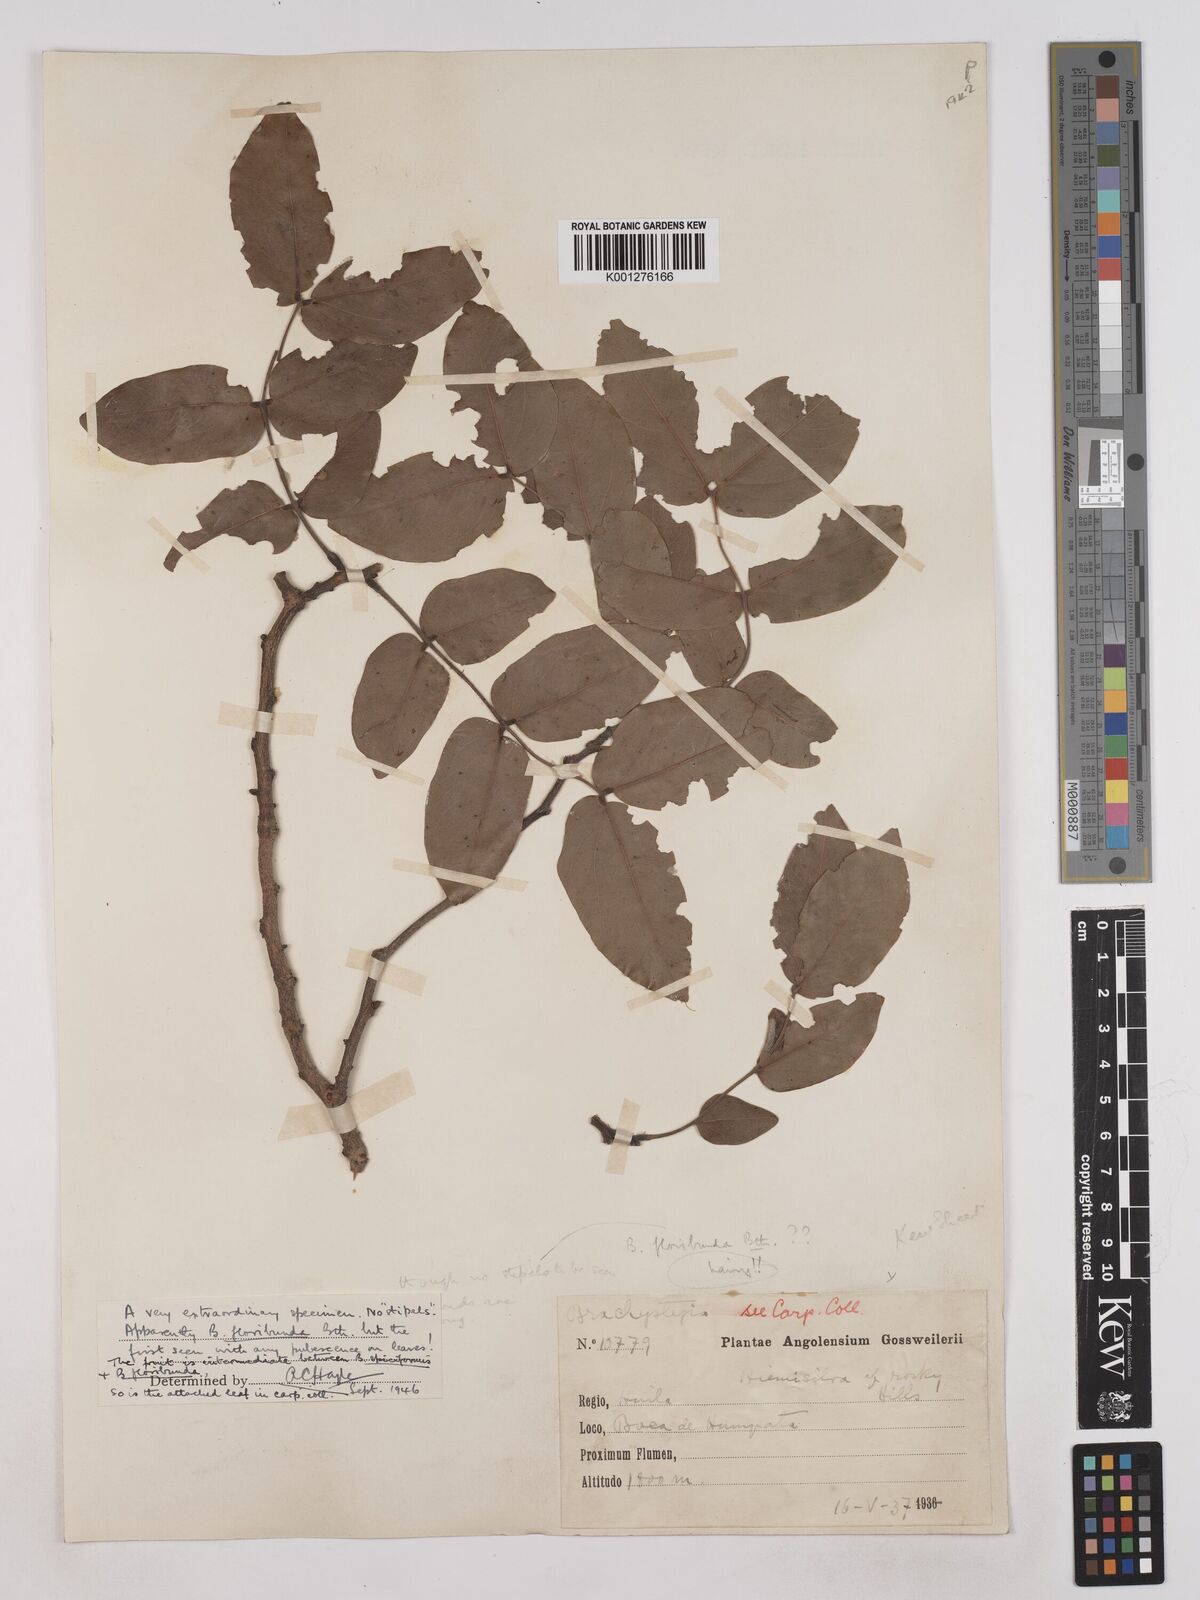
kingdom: Plantae
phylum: Tracheophyta
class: Magnoliopsida
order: Fabales
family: Fabaceae
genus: Brachystegia
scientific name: Brachystegia floribunda
